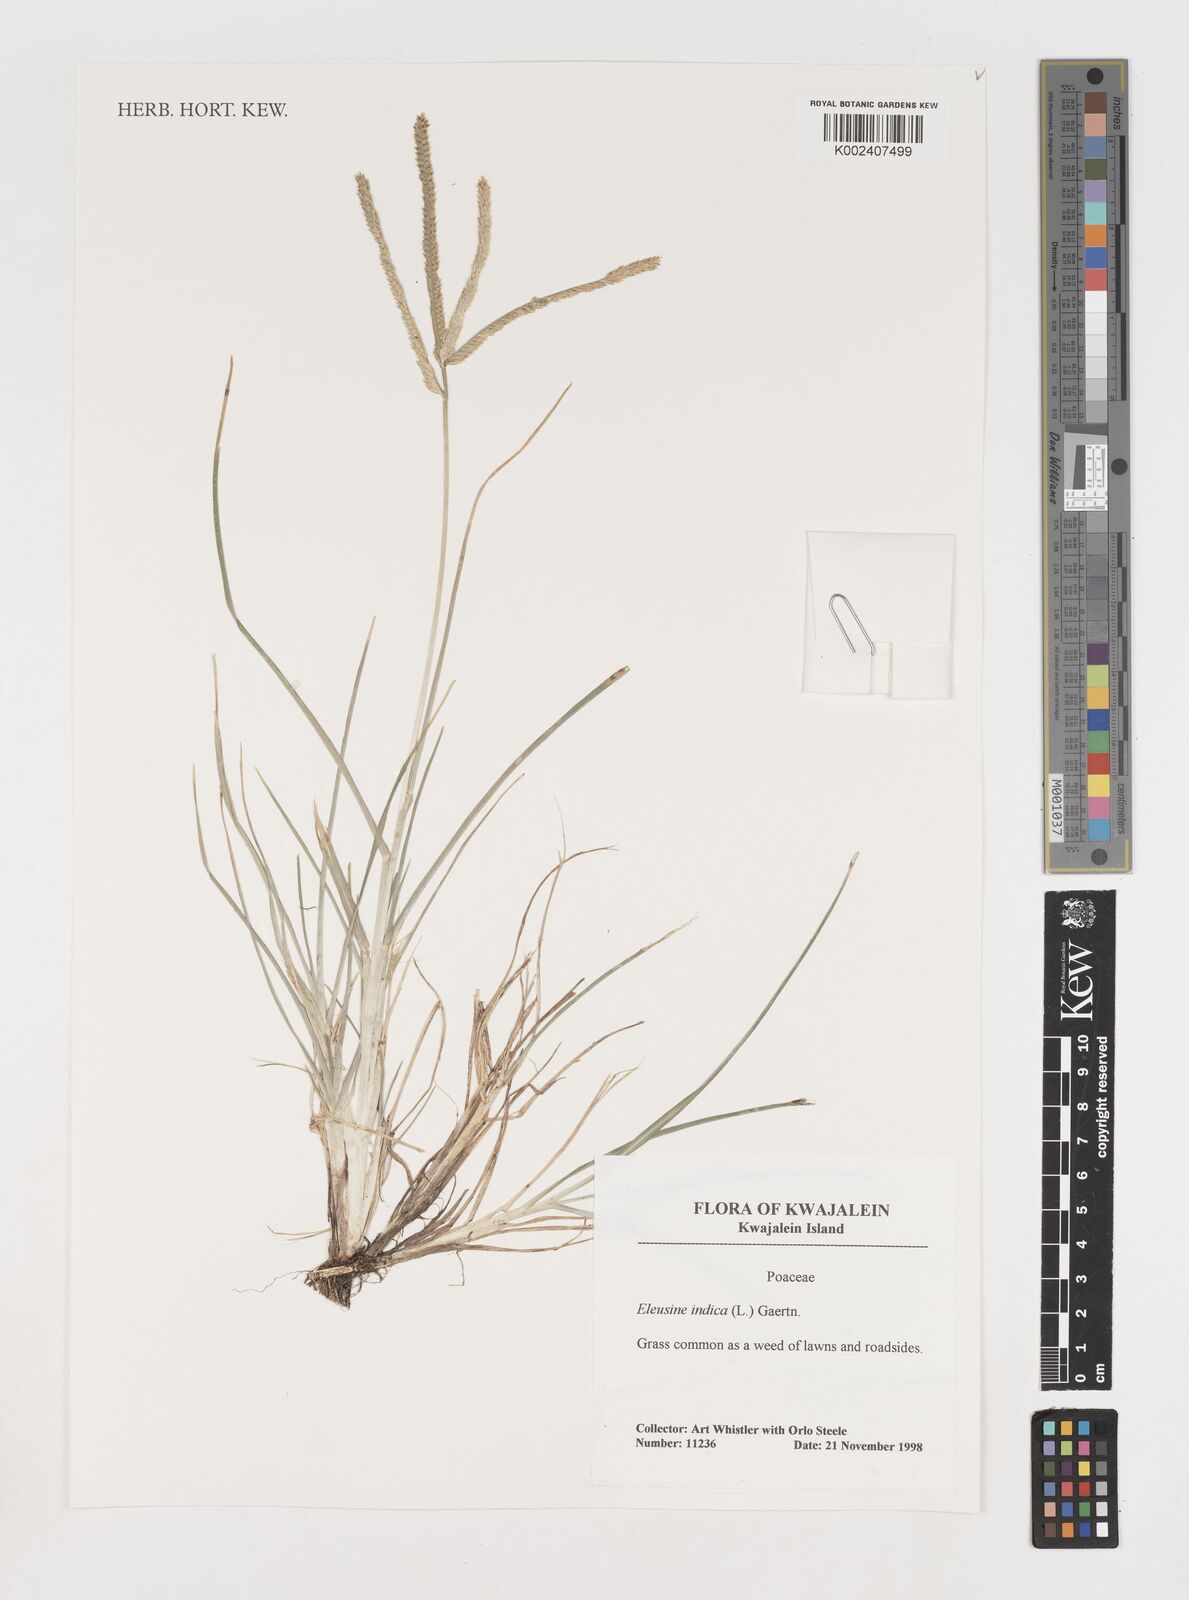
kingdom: Plantae
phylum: Tracheophyta
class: Liliopsida
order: Poales
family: Poaceae
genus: Eleusine
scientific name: Eleusine indica
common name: Yard-grass
